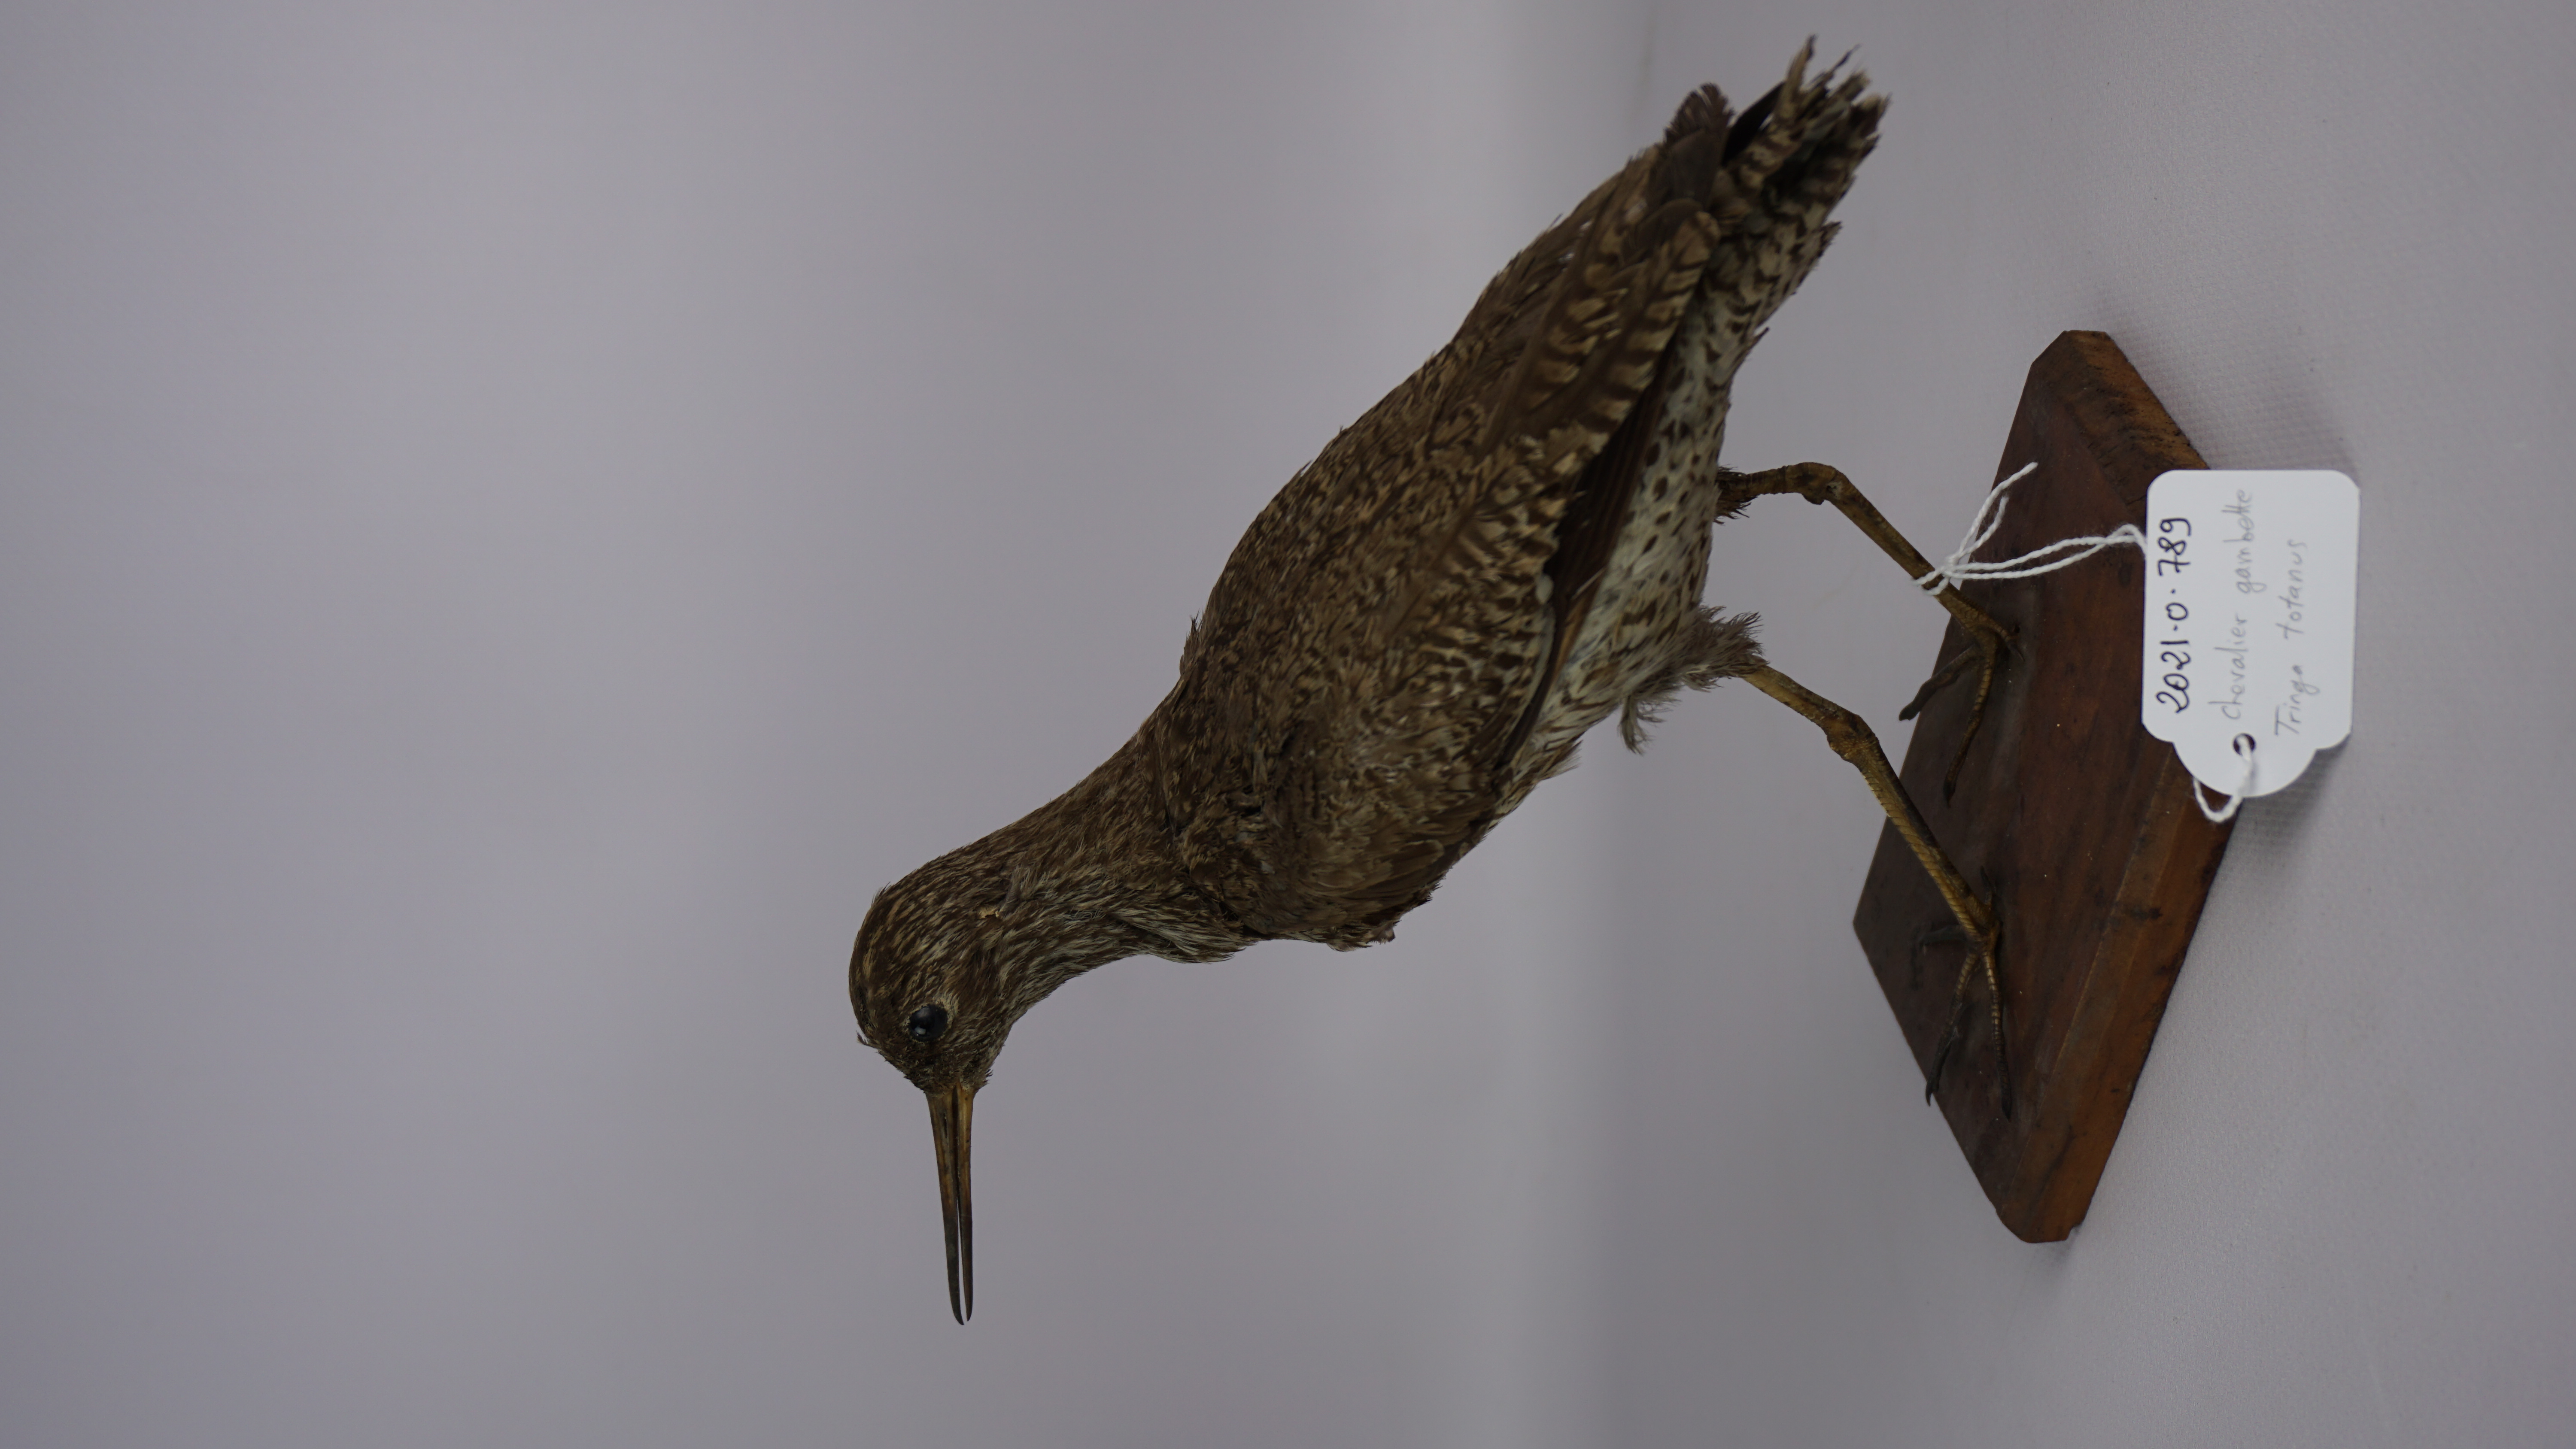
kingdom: Animalia
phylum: Chordata
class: Aves
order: Charadriiformes
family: Scolopacidae
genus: Tringa
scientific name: Tringa totanus
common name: Common redshank
